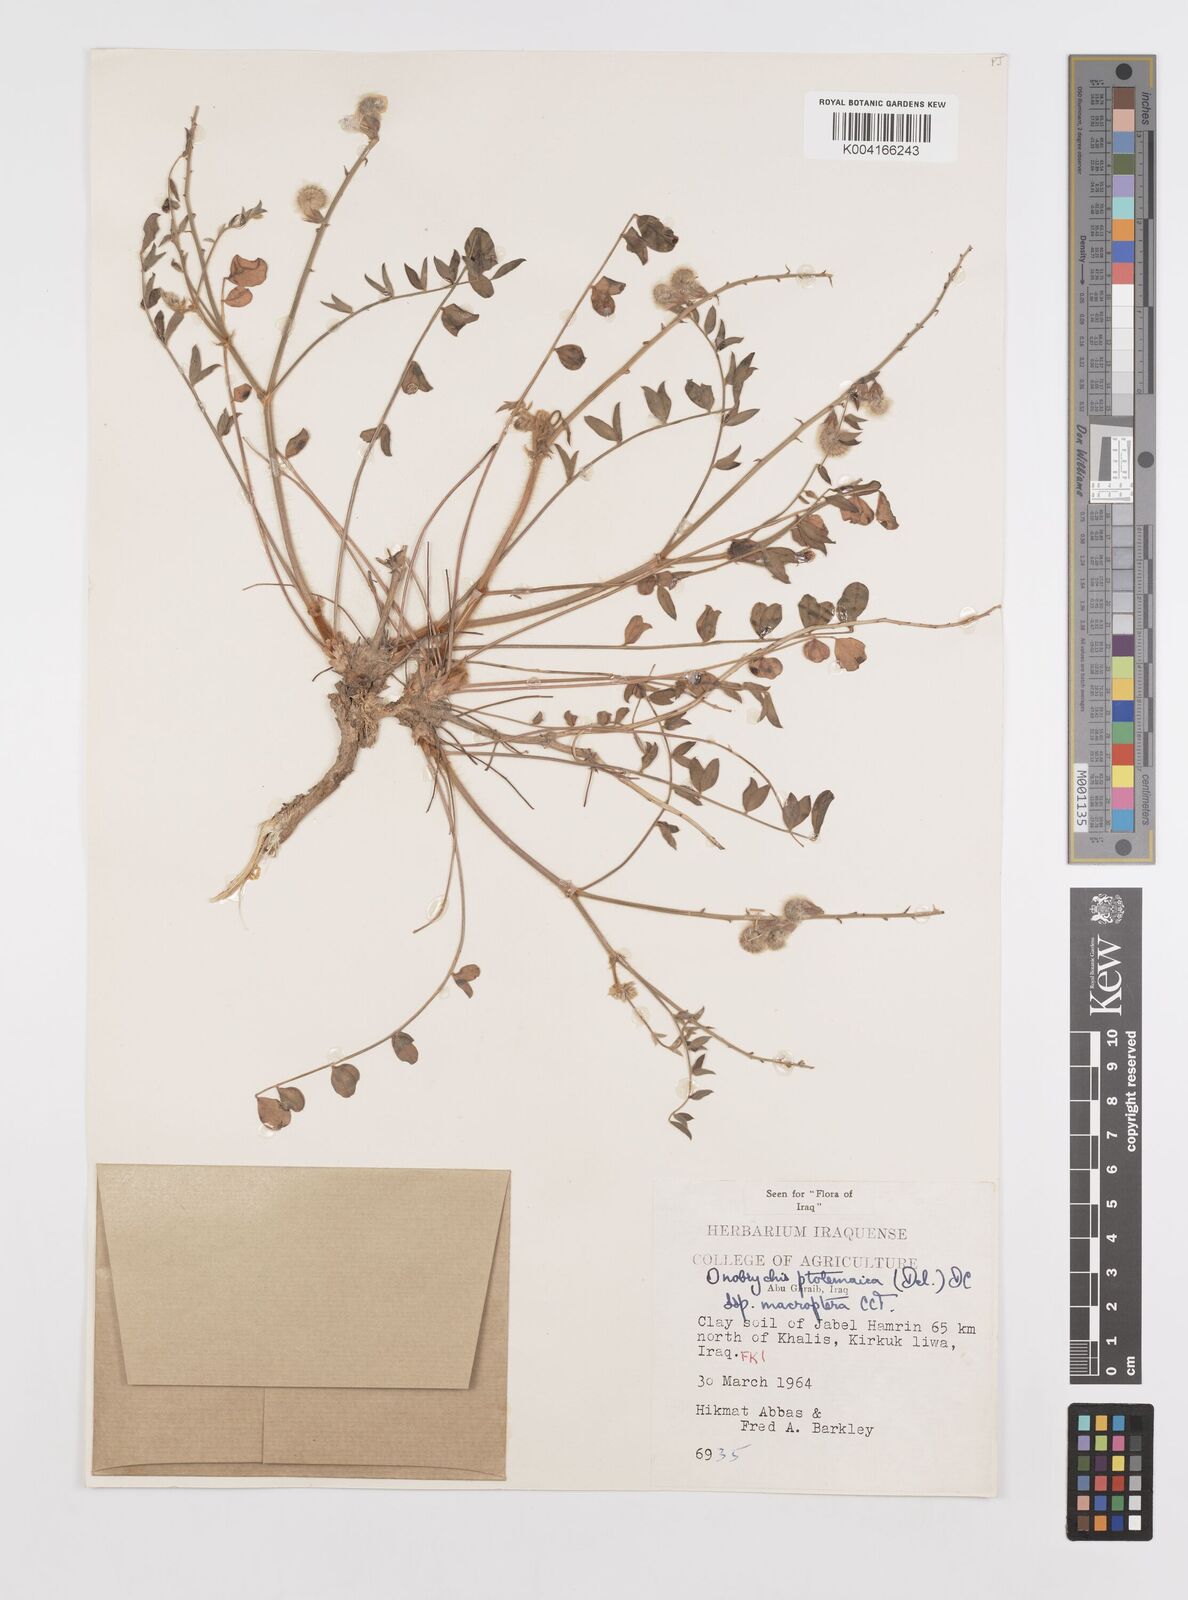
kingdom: Plantae
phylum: Tracheophyta
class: Magnoliopsida
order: Fabales
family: Fabaceae
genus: Onobrychis
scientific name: Onobrychis ptolemaica
